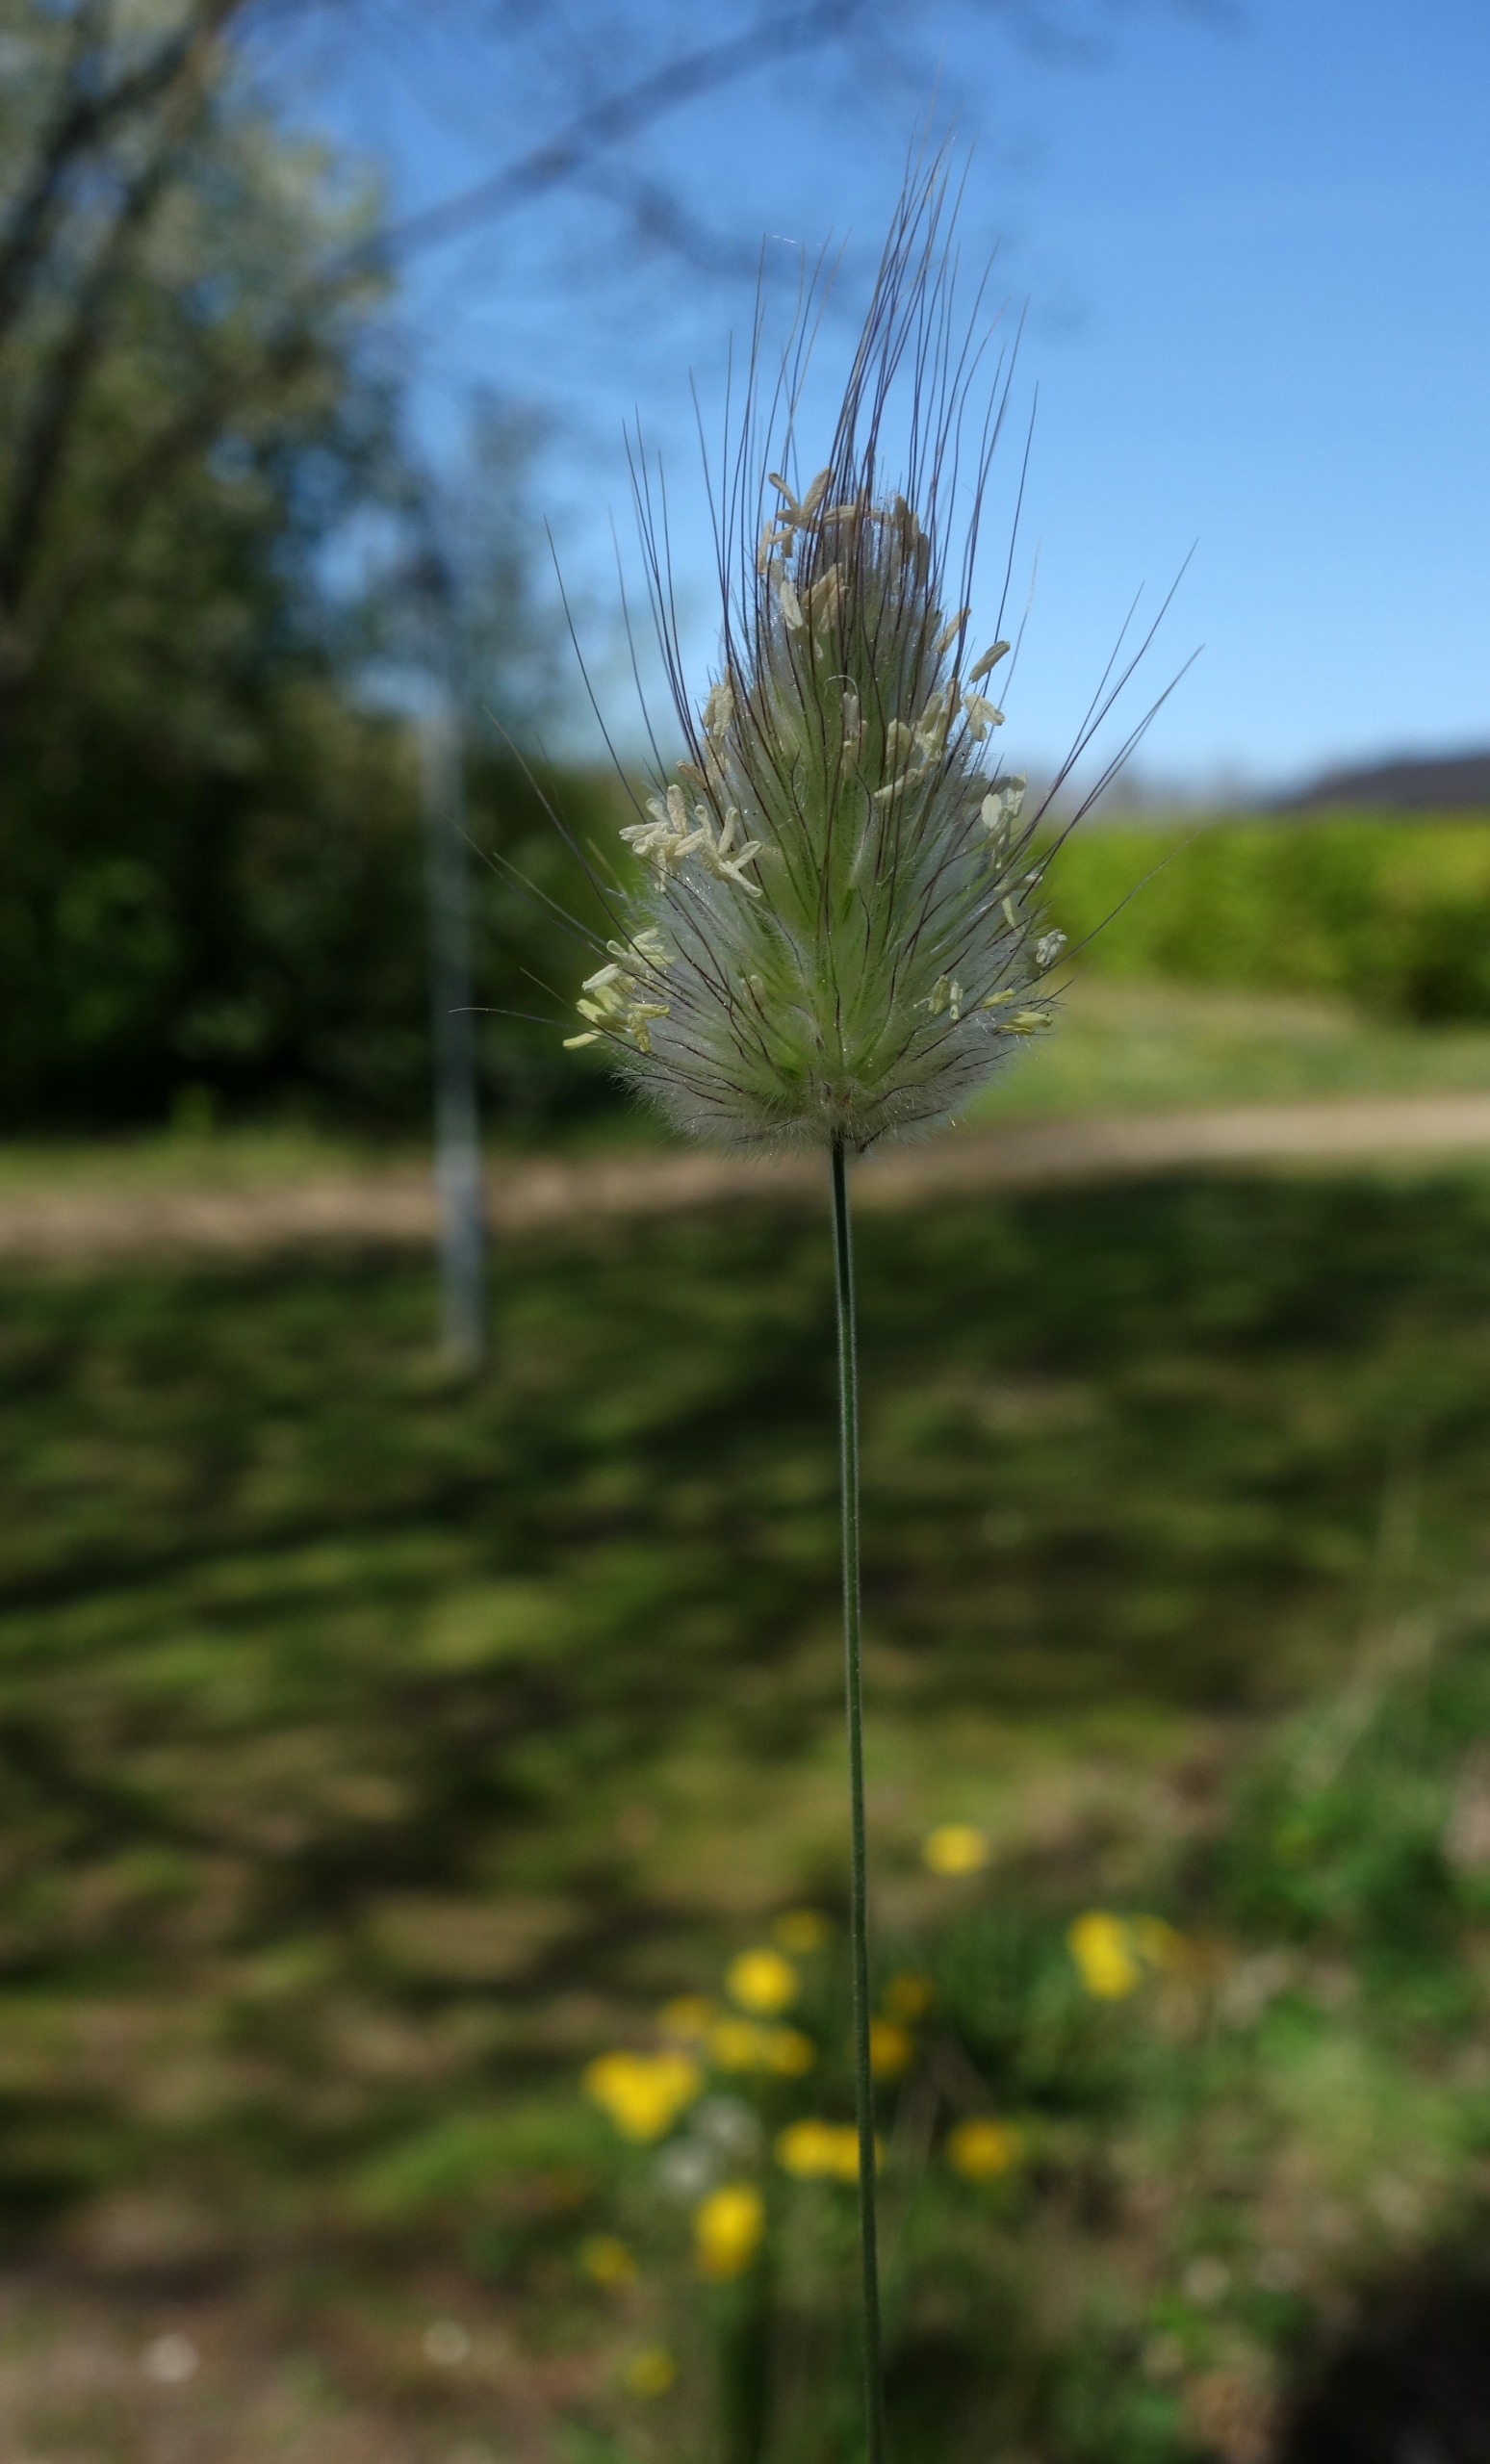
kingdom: Plantae
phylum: Tracheophyta
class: Liliopsida
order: Poales
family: Poaceae
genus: Lagurus
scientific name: Lagurus ovatus
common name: Harehale
